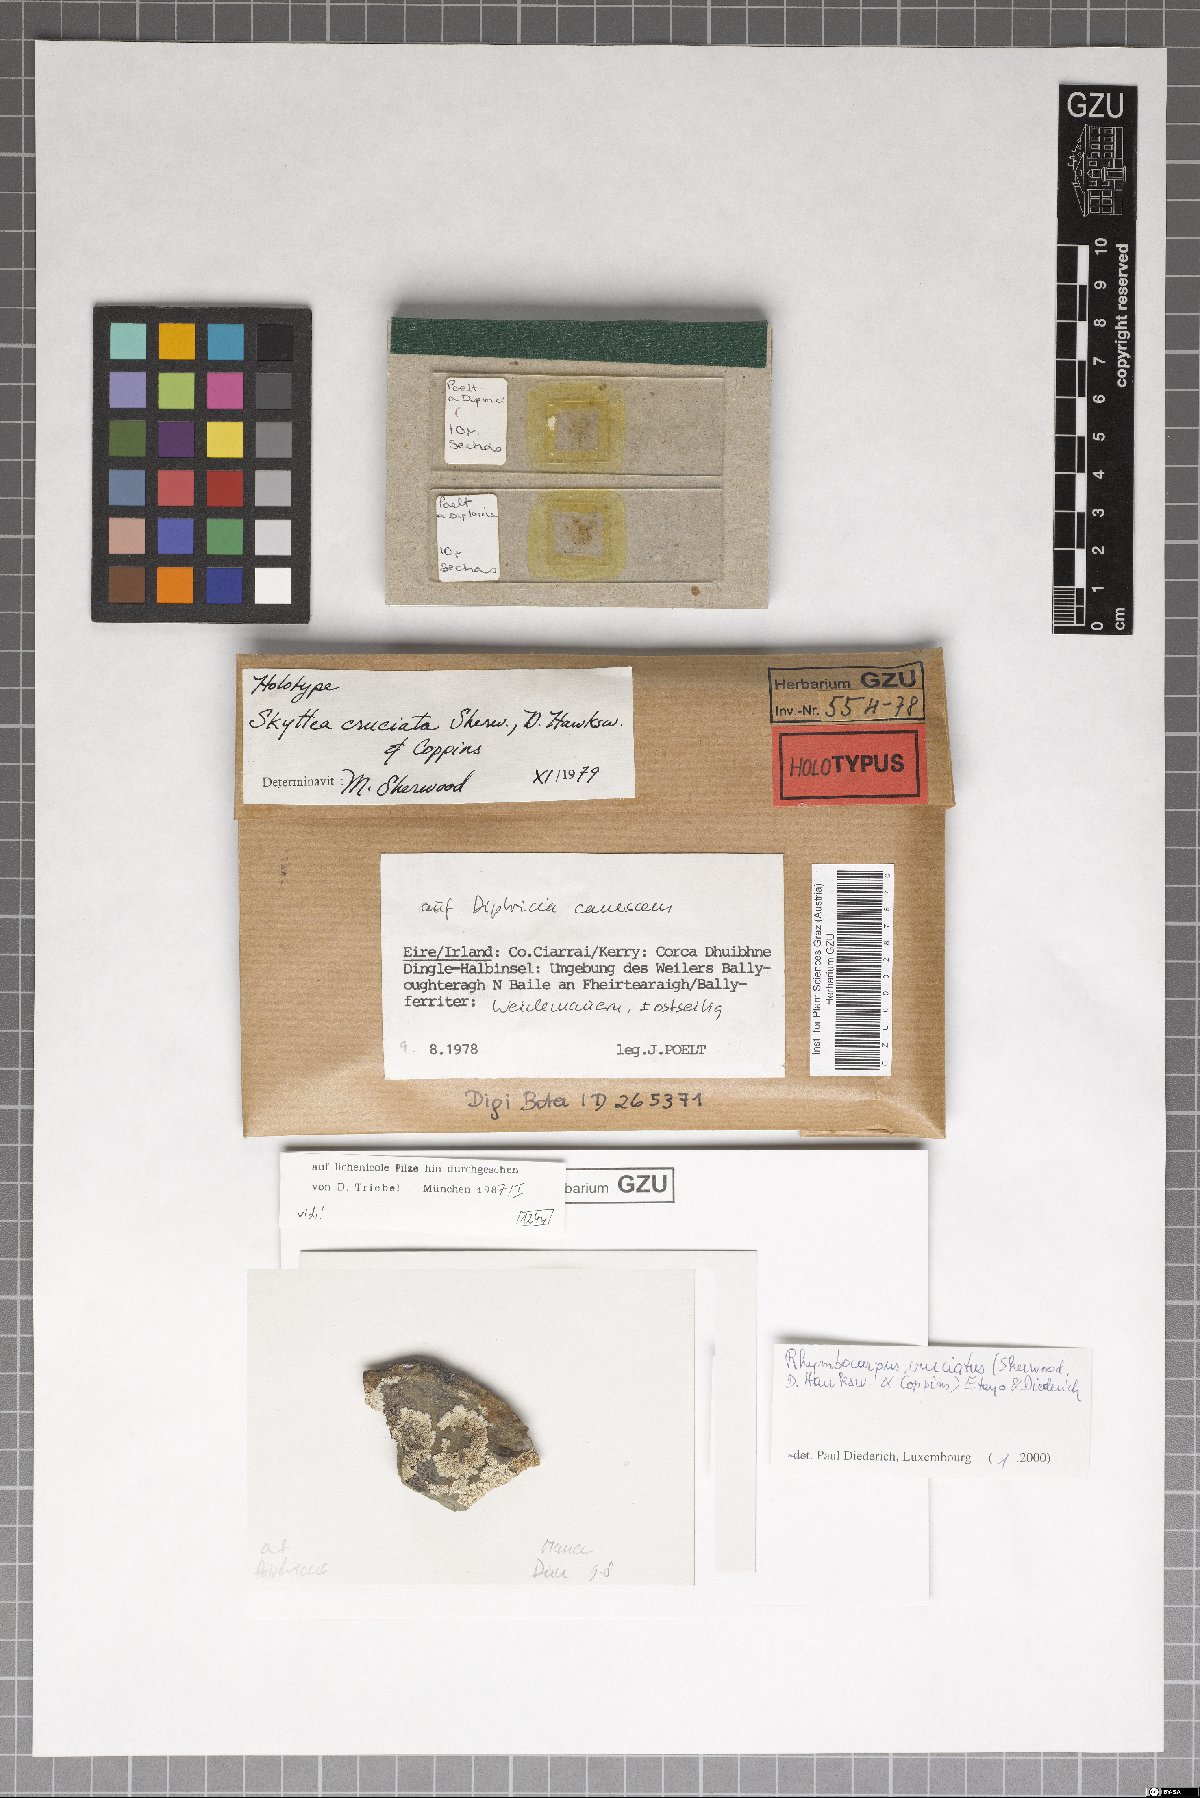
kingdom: Fungi
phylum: Ascomycota
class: Leotiomycetes
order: Helotiales
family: Cordieritidaceae
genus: Rhymbocarpus
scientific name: Rhymbocarpus cruciatus
